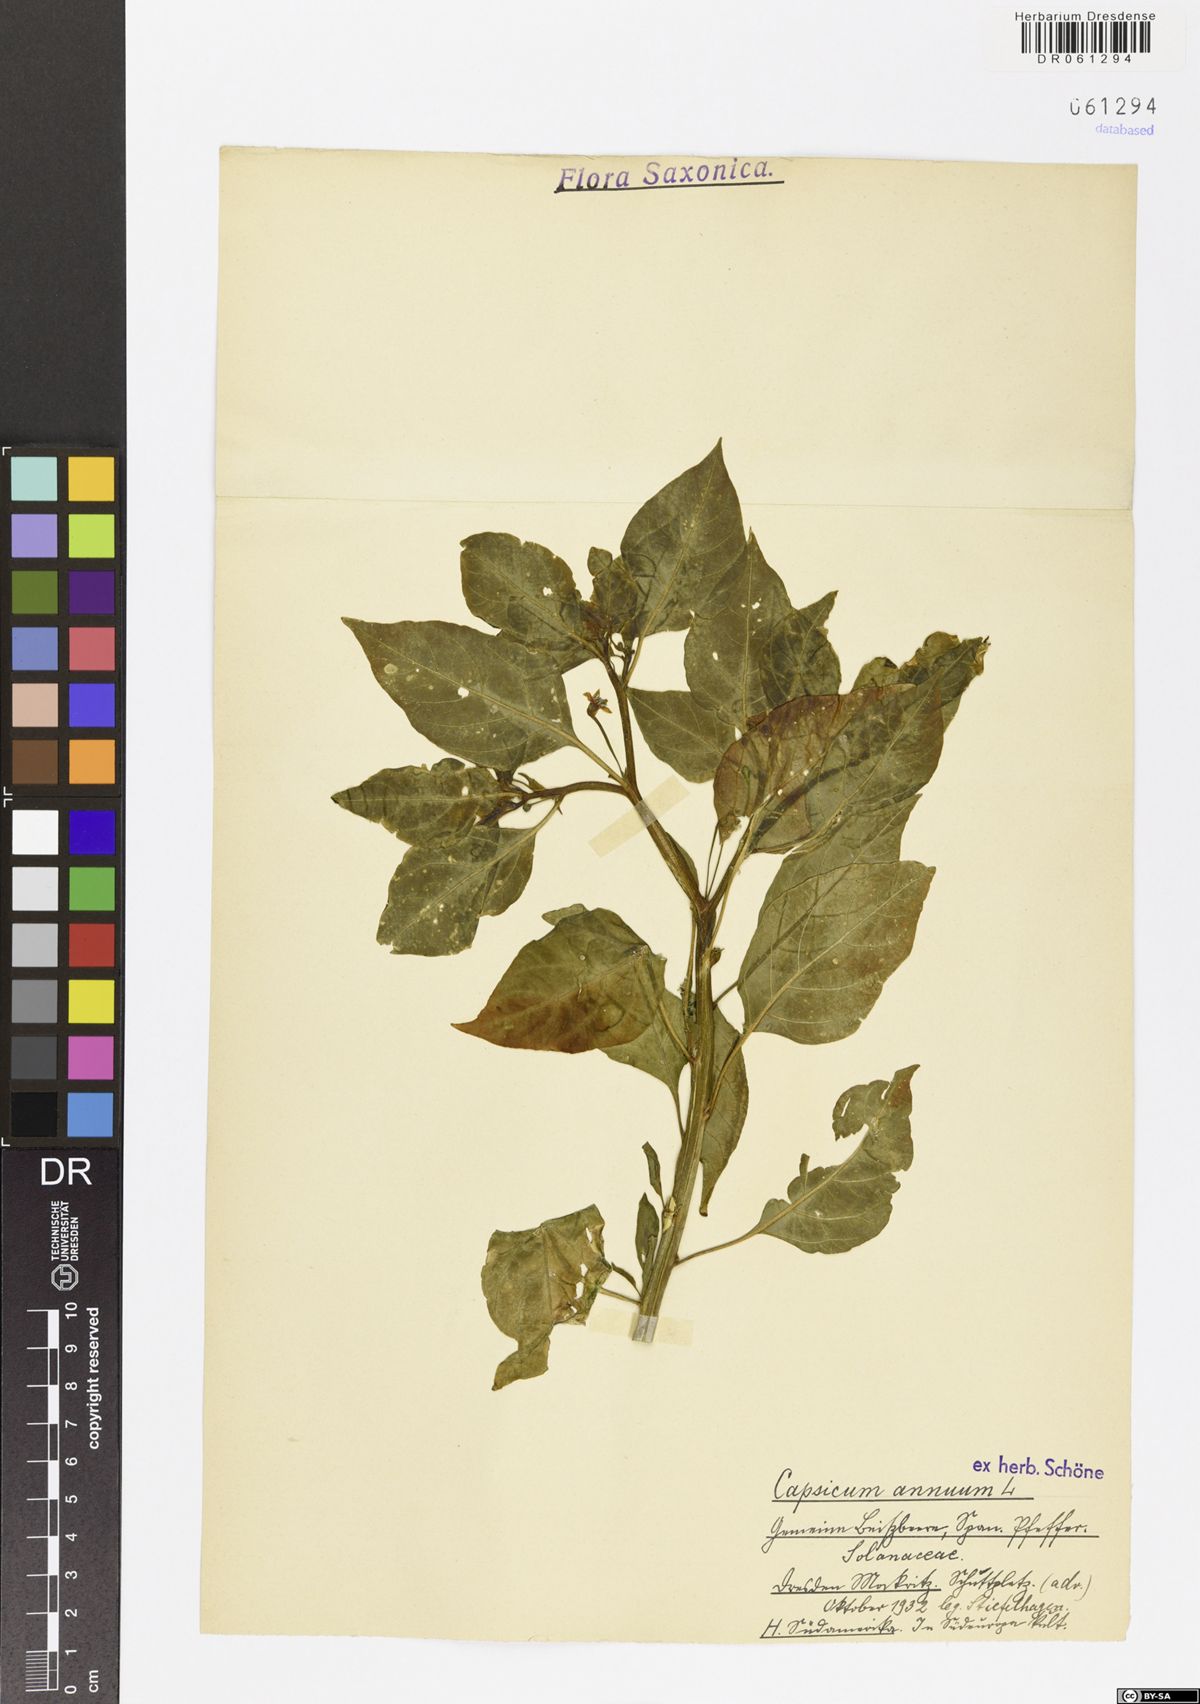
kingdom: Plantae
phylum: Tracheophyta
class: Magnoliopsida
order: Solanales
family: Solanaceae
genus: Capsicum
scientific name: Capsicum annuum
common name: Sweet pepper
